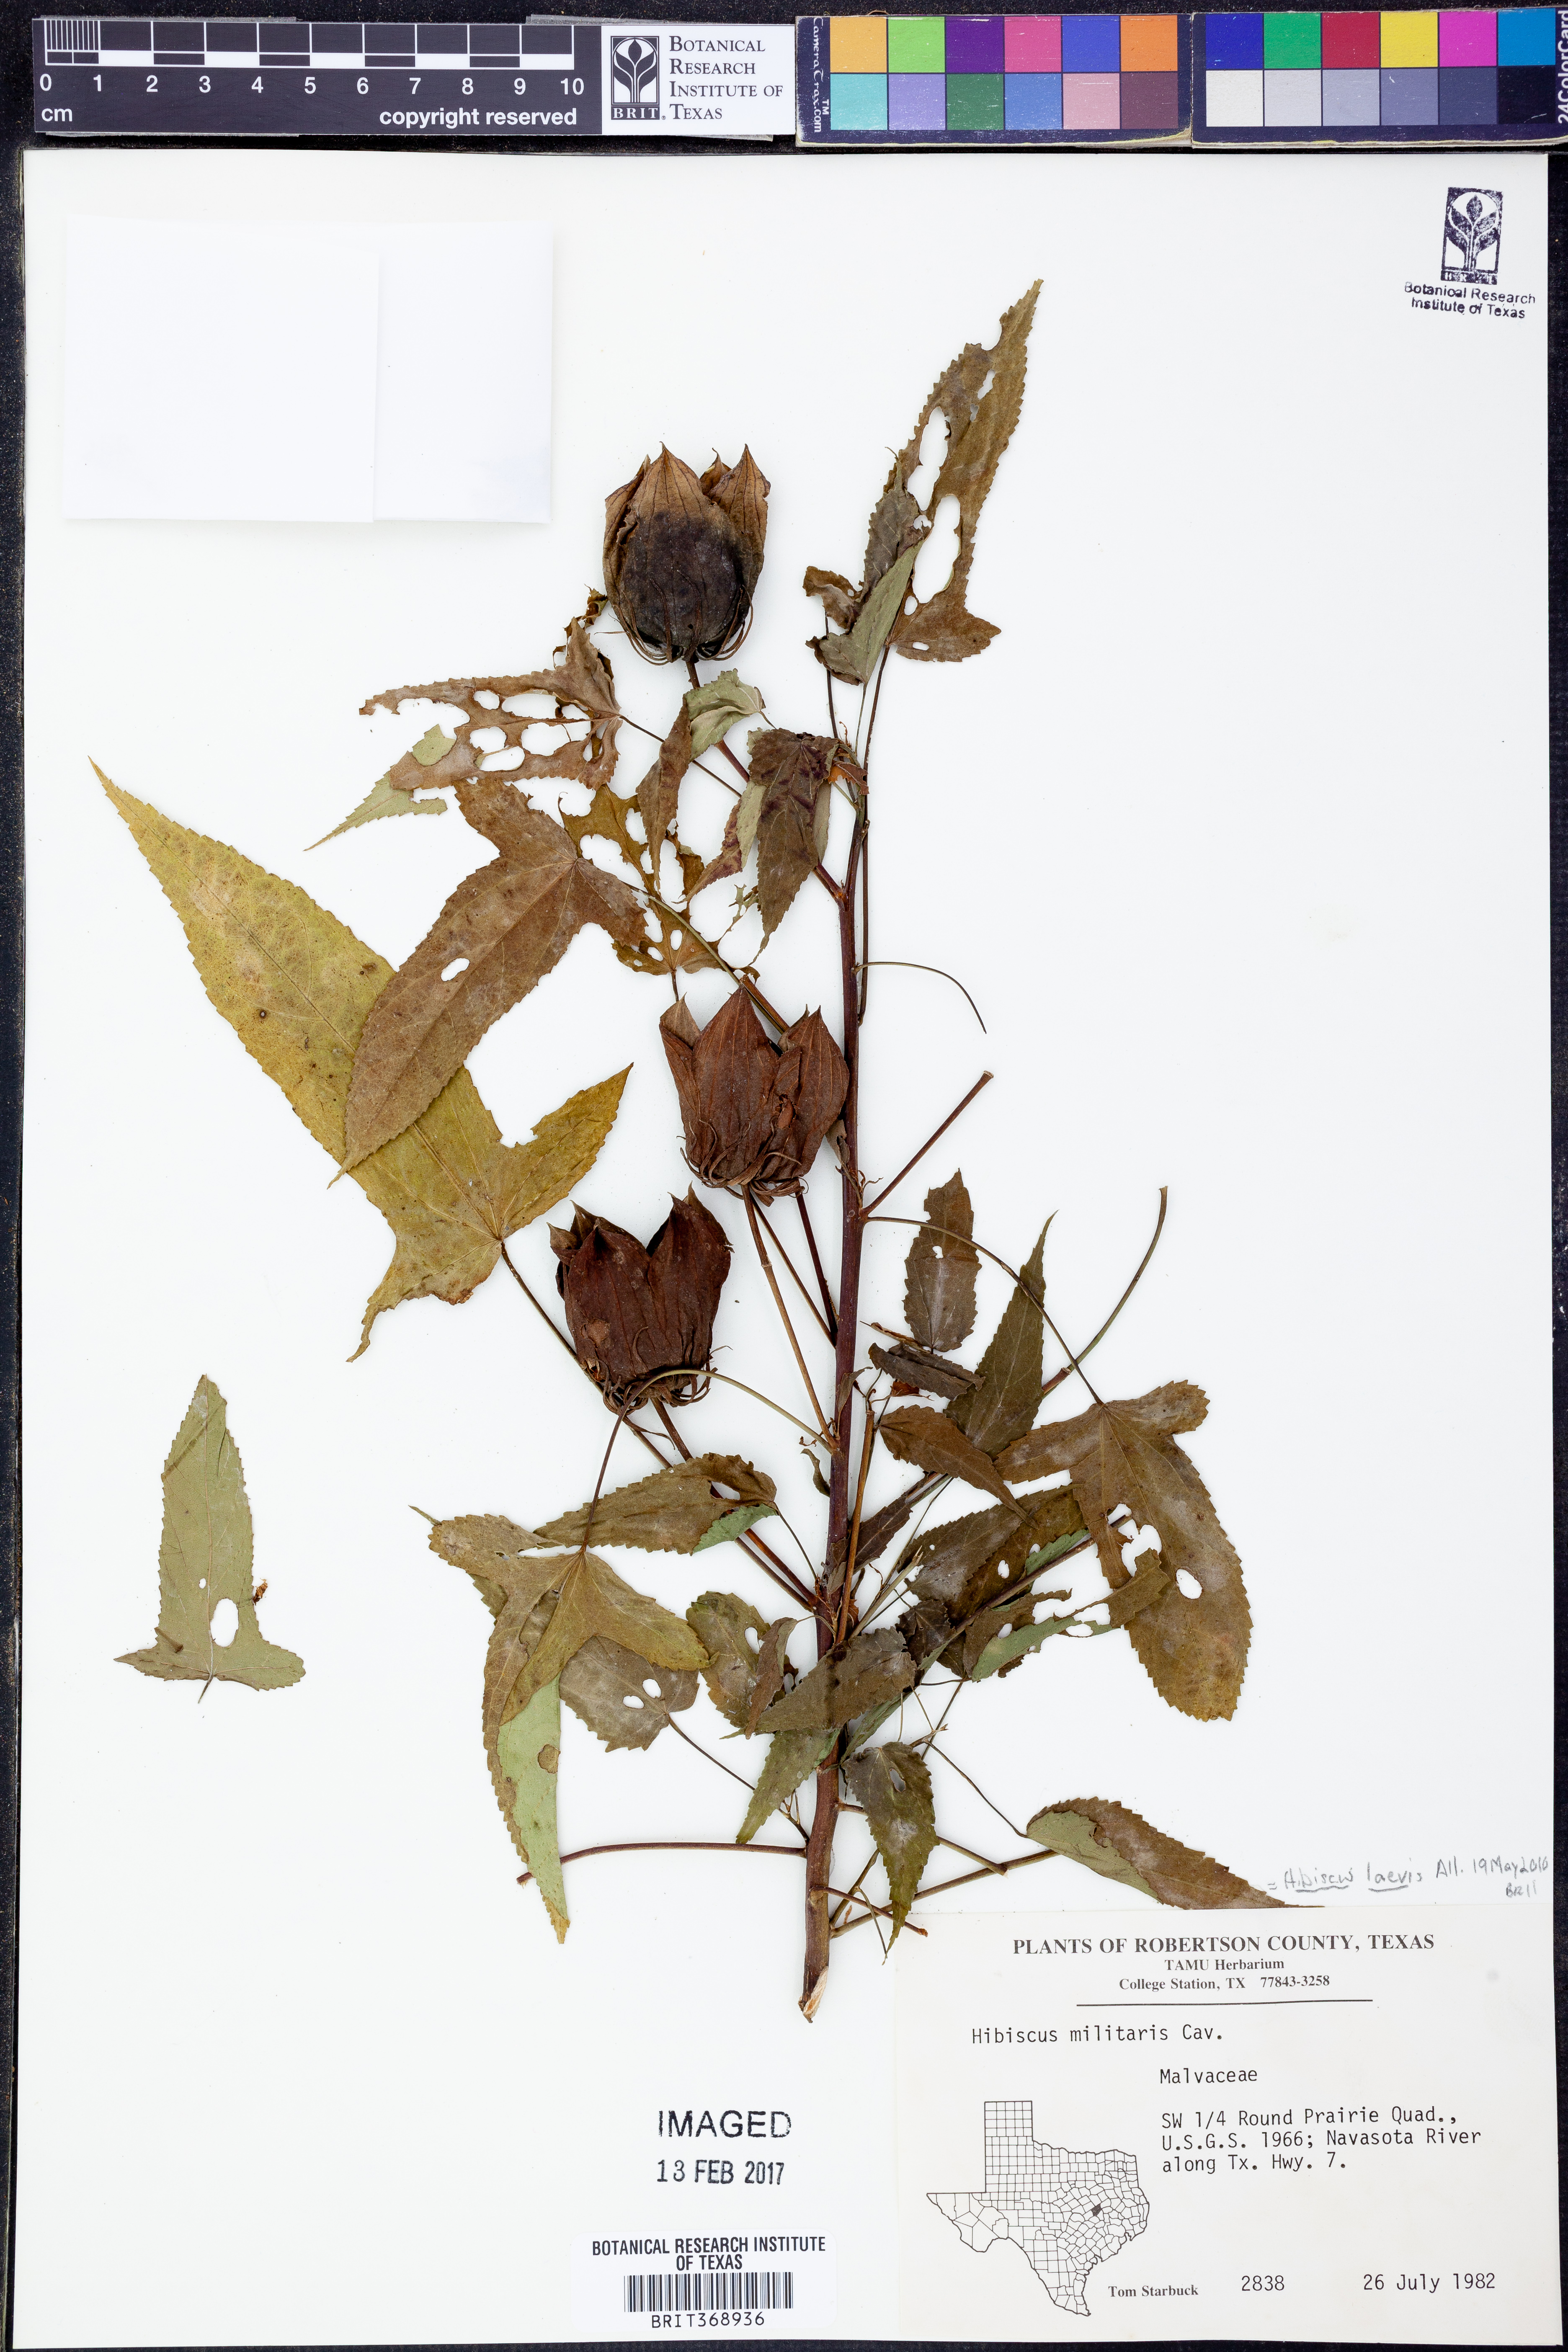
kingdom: Plantae
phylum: Tracheophyta
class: Magnoliopsida
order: Malvales
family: Malvaceae
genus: Hibiscus
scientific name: Hibiscus laevis
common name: Scarlet rose-mallow
